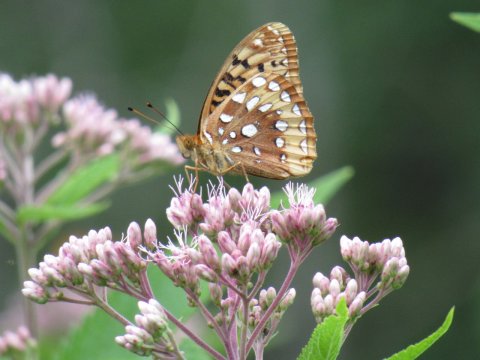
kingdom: Animalia
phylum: Arthropoda
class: Insecta
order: Lepidoptera
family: Nymphalidae
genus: Speyeria
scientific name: Speyeria cybele
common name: Great Spangled Fritillary
